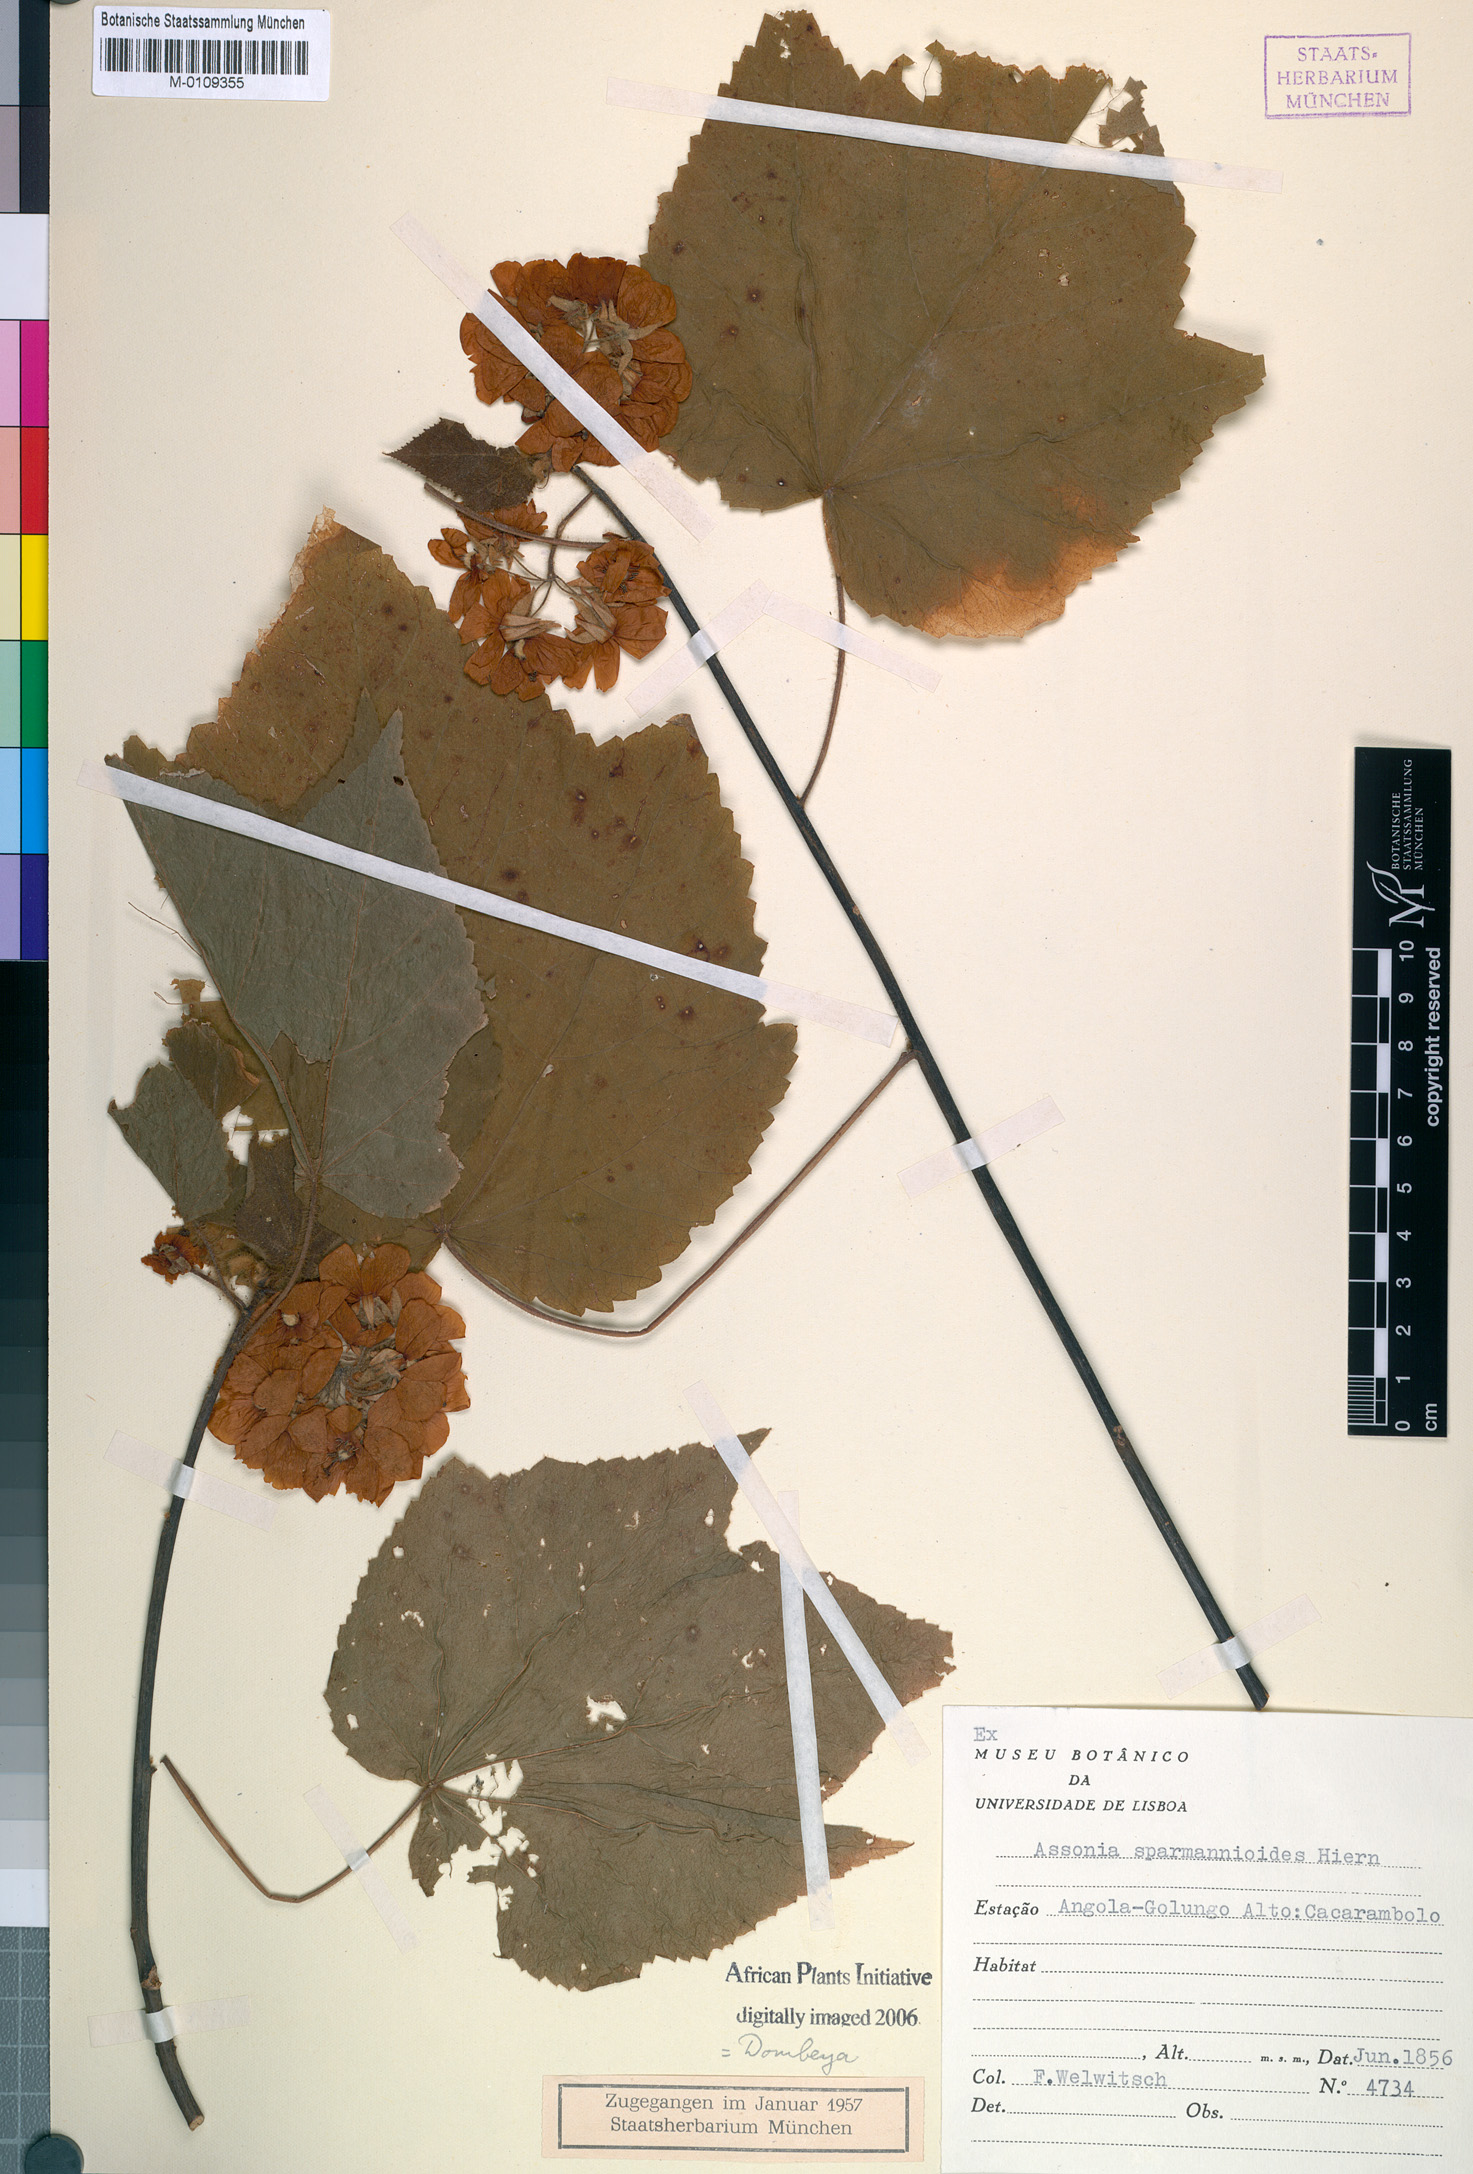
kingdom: Plantae
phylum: Tracheophyta
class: Magnoliopsida
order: Malvales
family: Malvaceae
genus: Dombeya
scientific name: Dombeya burgessiae
